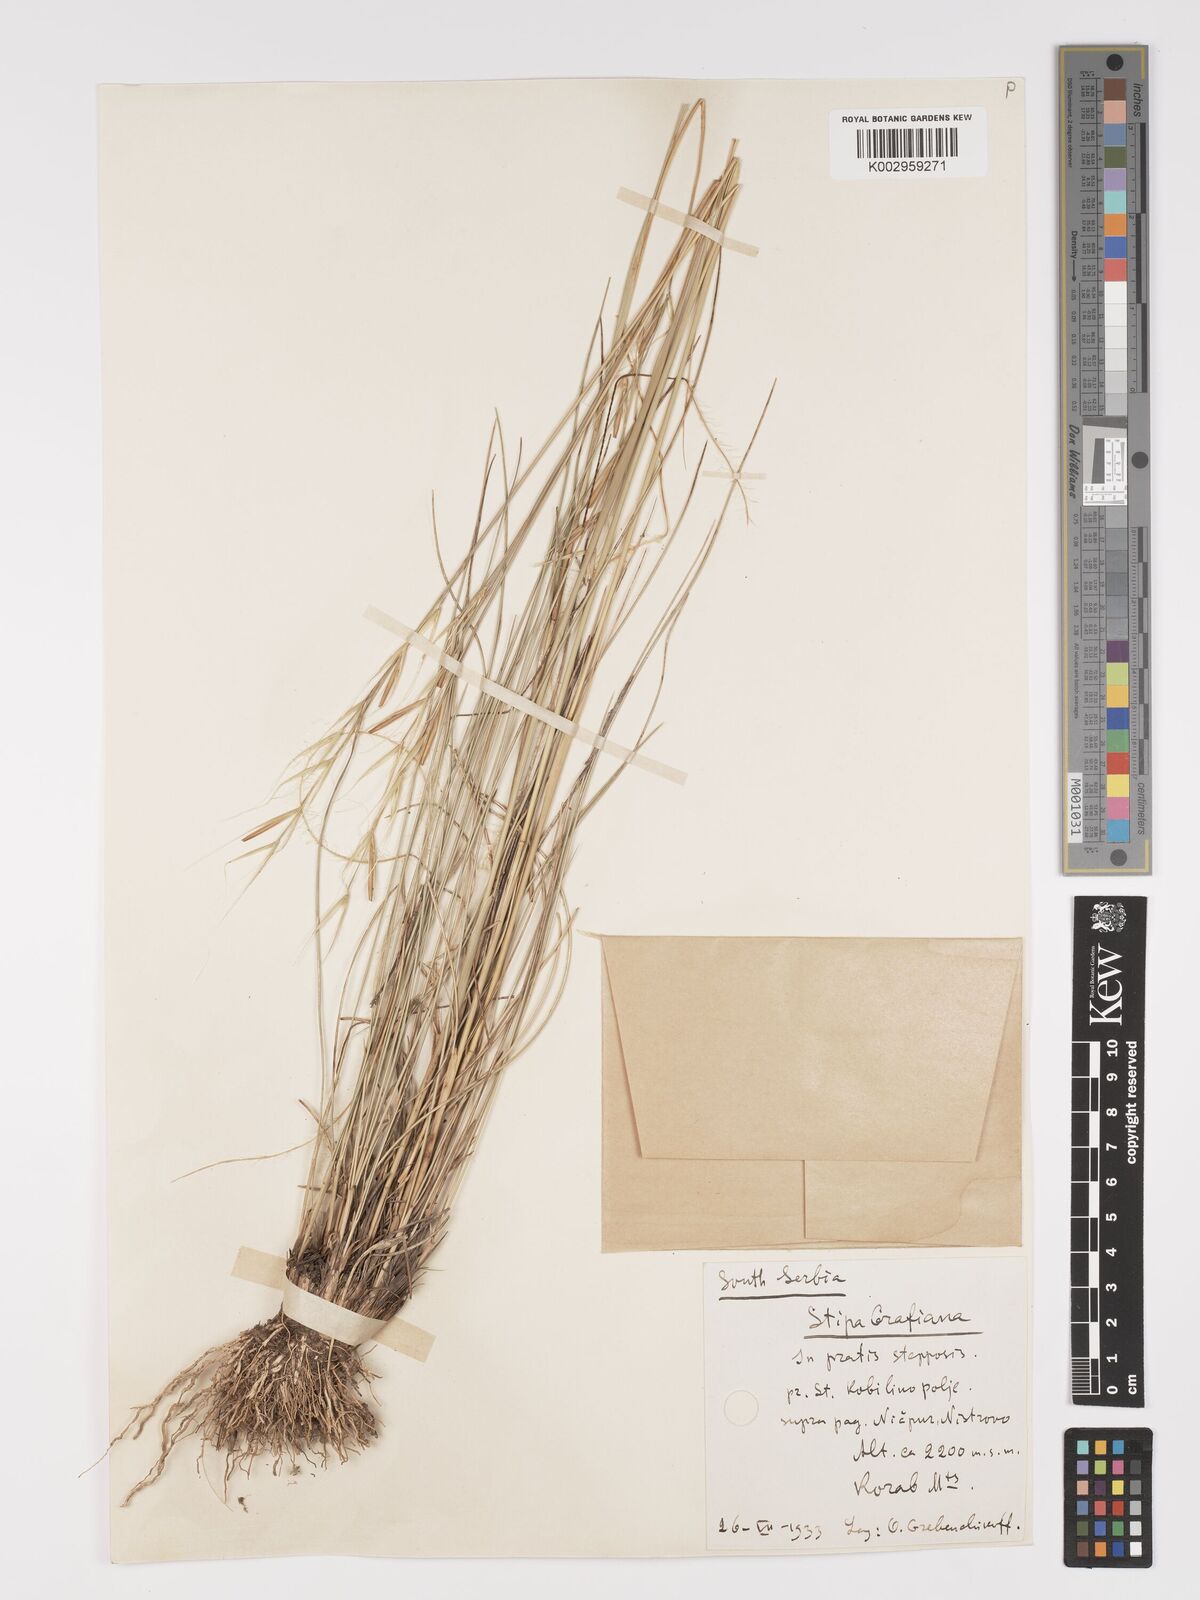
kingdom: Plantae
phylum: Tracheophyta
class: Liliopsida
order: Poales
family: Poaceae
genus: Stipa
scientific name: Stipa pulcherrima
